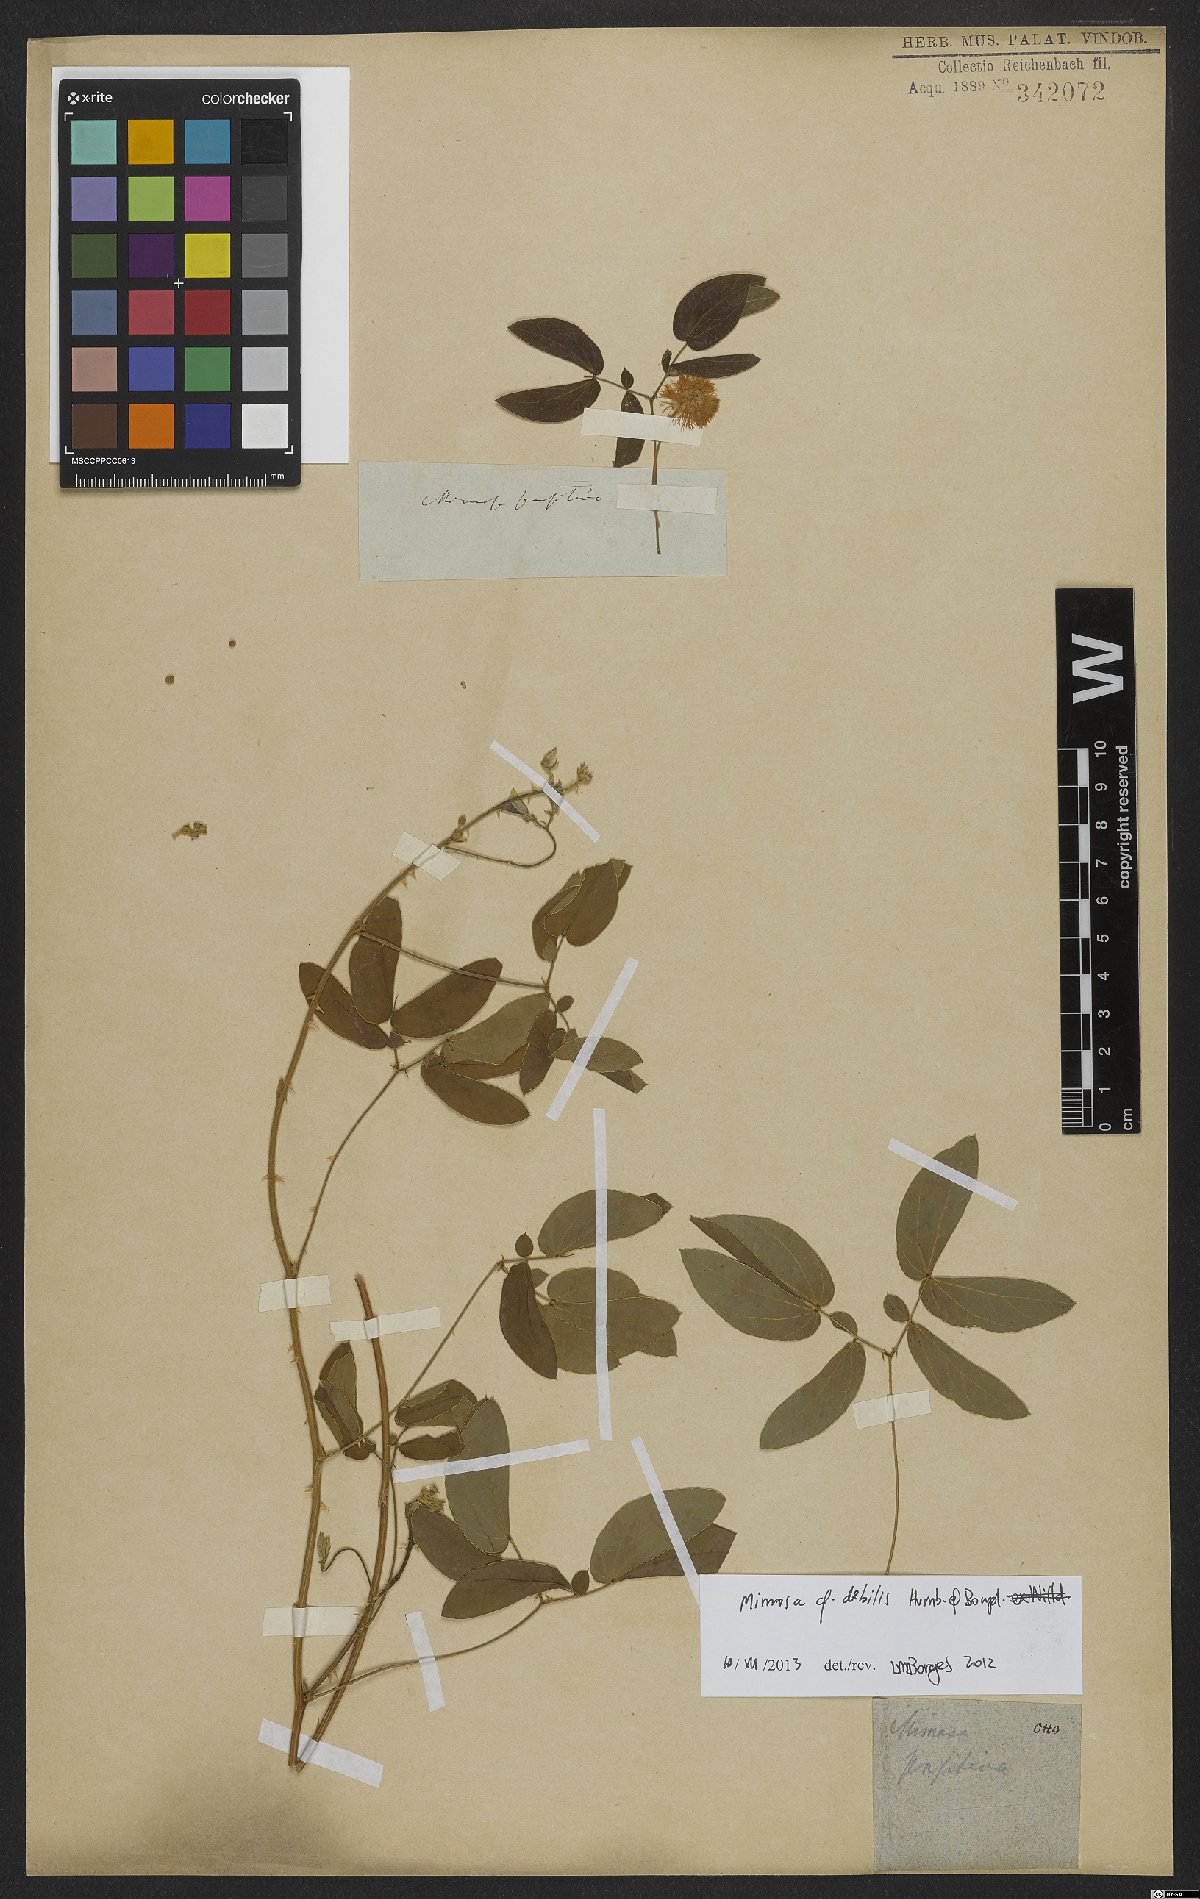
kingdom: Plantae
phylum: Tracheophyta
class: Magnoliopsida
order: Fabales
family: Fabaceae
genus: Mimosa
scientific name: Mimosa debilis
